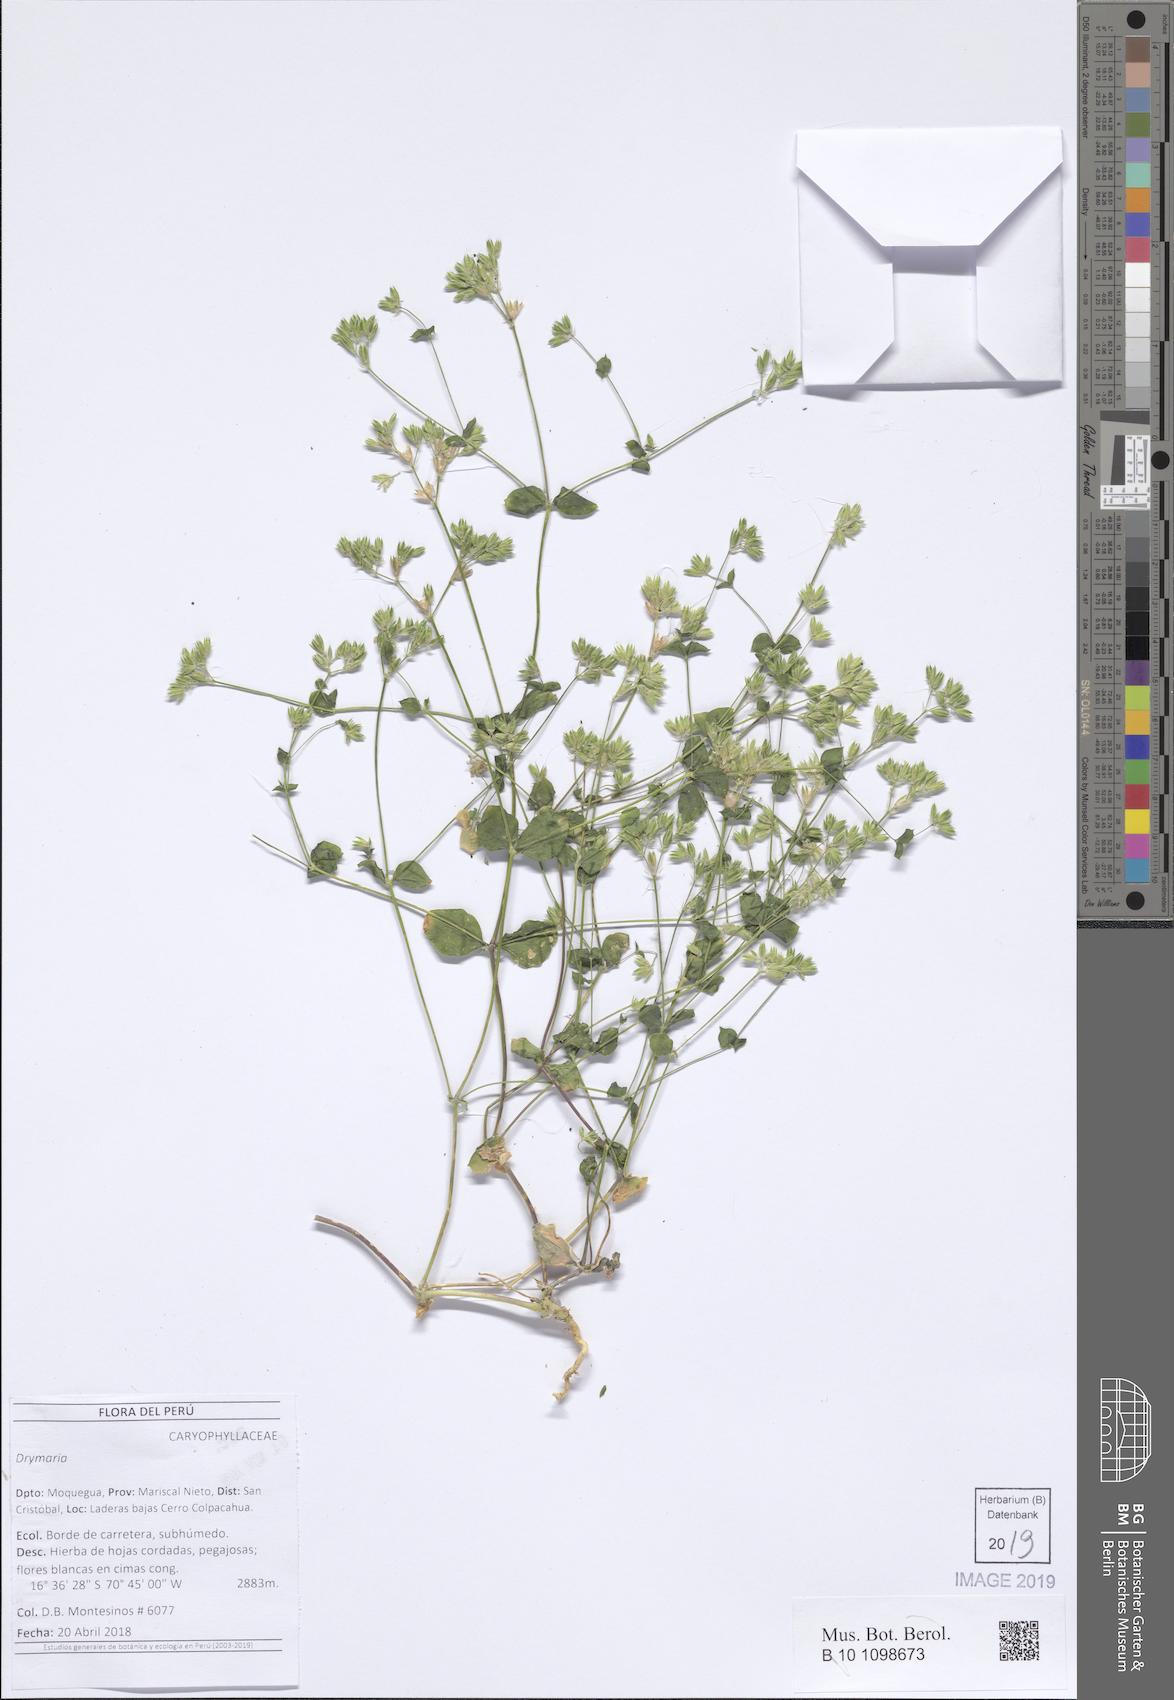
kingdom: Plantae
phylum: Tracheophyta
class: Magnoliopsida
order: Caryophyllales
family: Caryophyllaceae
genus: Drymaria
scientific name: Drymaria
